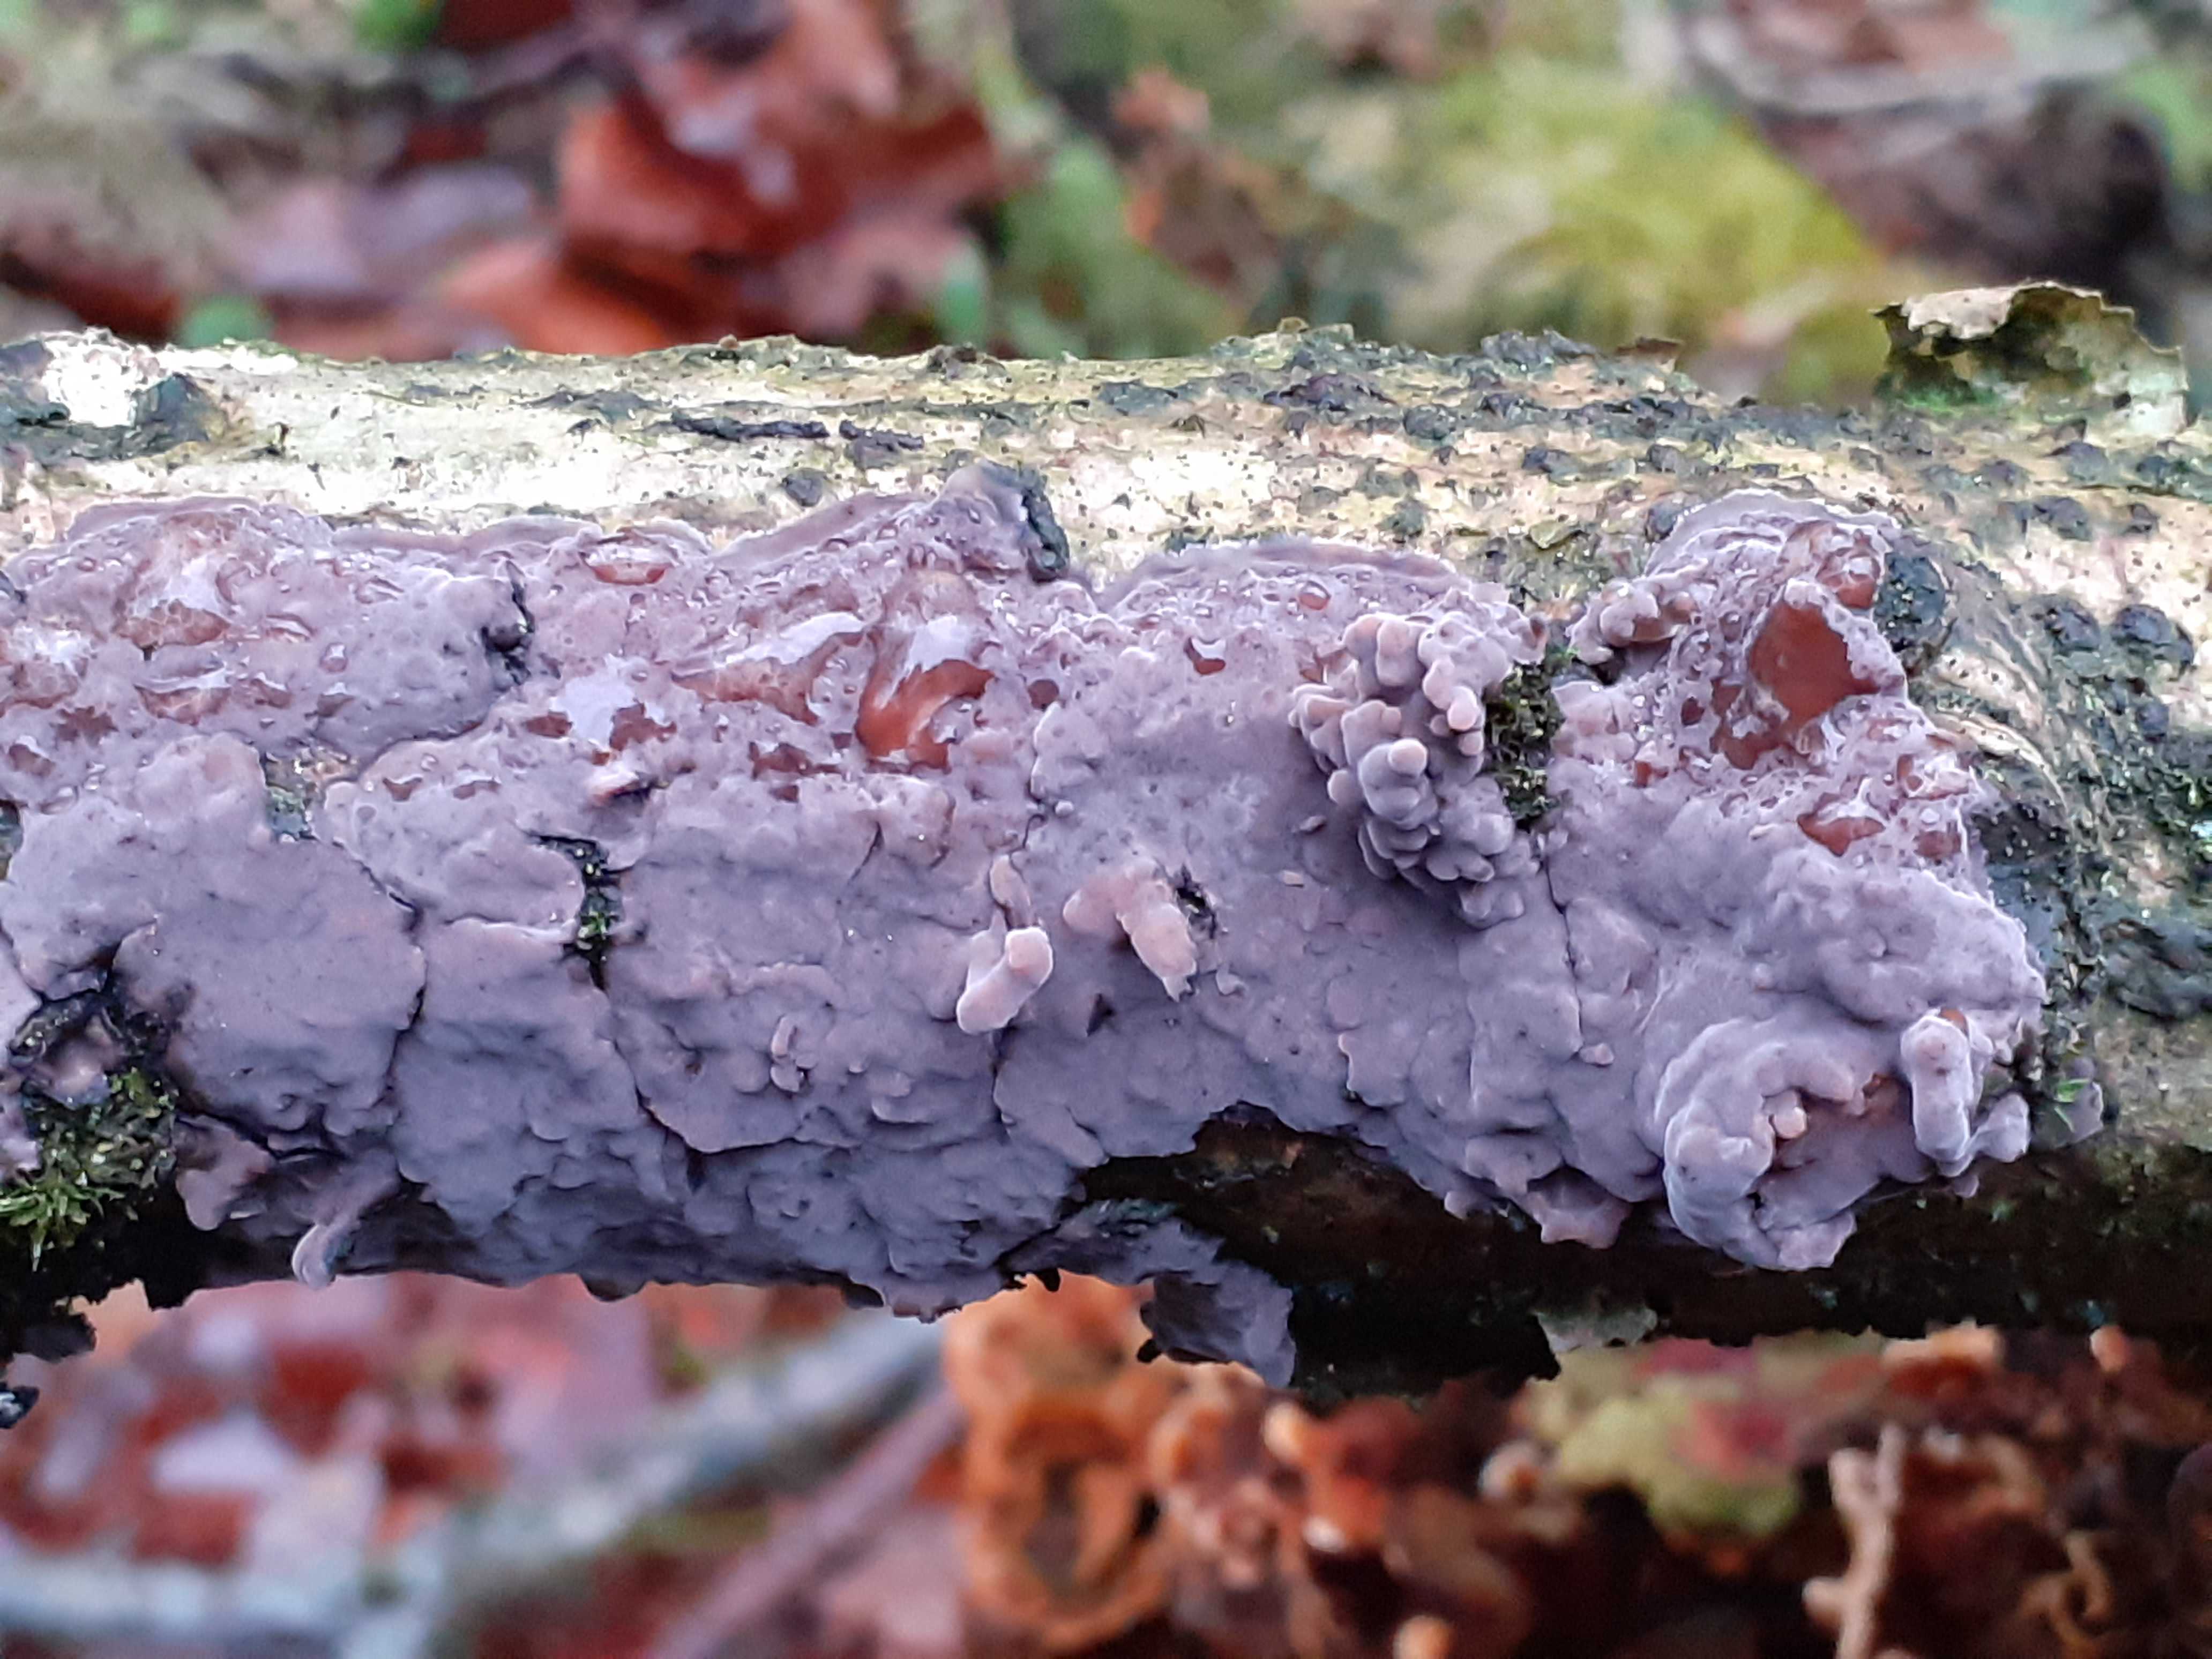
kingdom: Fungi
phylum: Basidiomycota
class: Agaricomycetes
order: Russulales
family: Peniophoraceae
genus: Peniophora
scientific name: Peniophora quercina
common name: ege-voksskind
